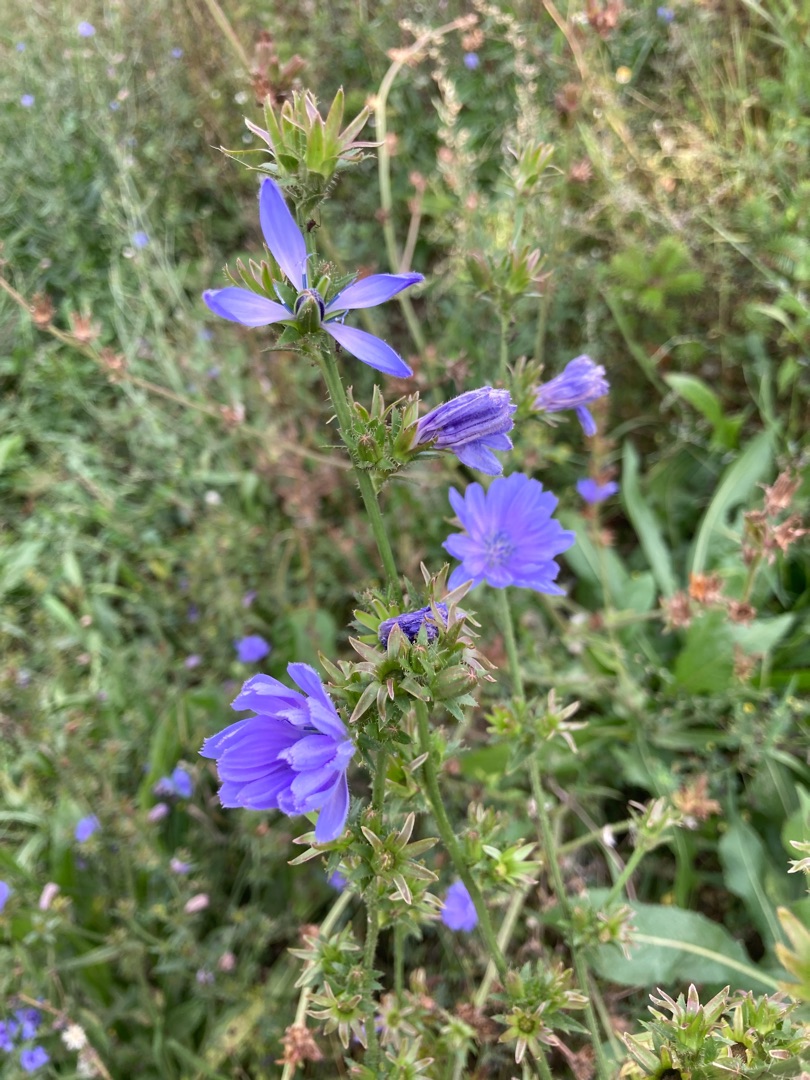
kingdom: Plantae
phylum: Tracheophyta
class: Magnoliopsida
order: Asterales
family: Asteraceae
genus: Cichorium
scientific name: Cichorium intybus
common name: Cikorie
